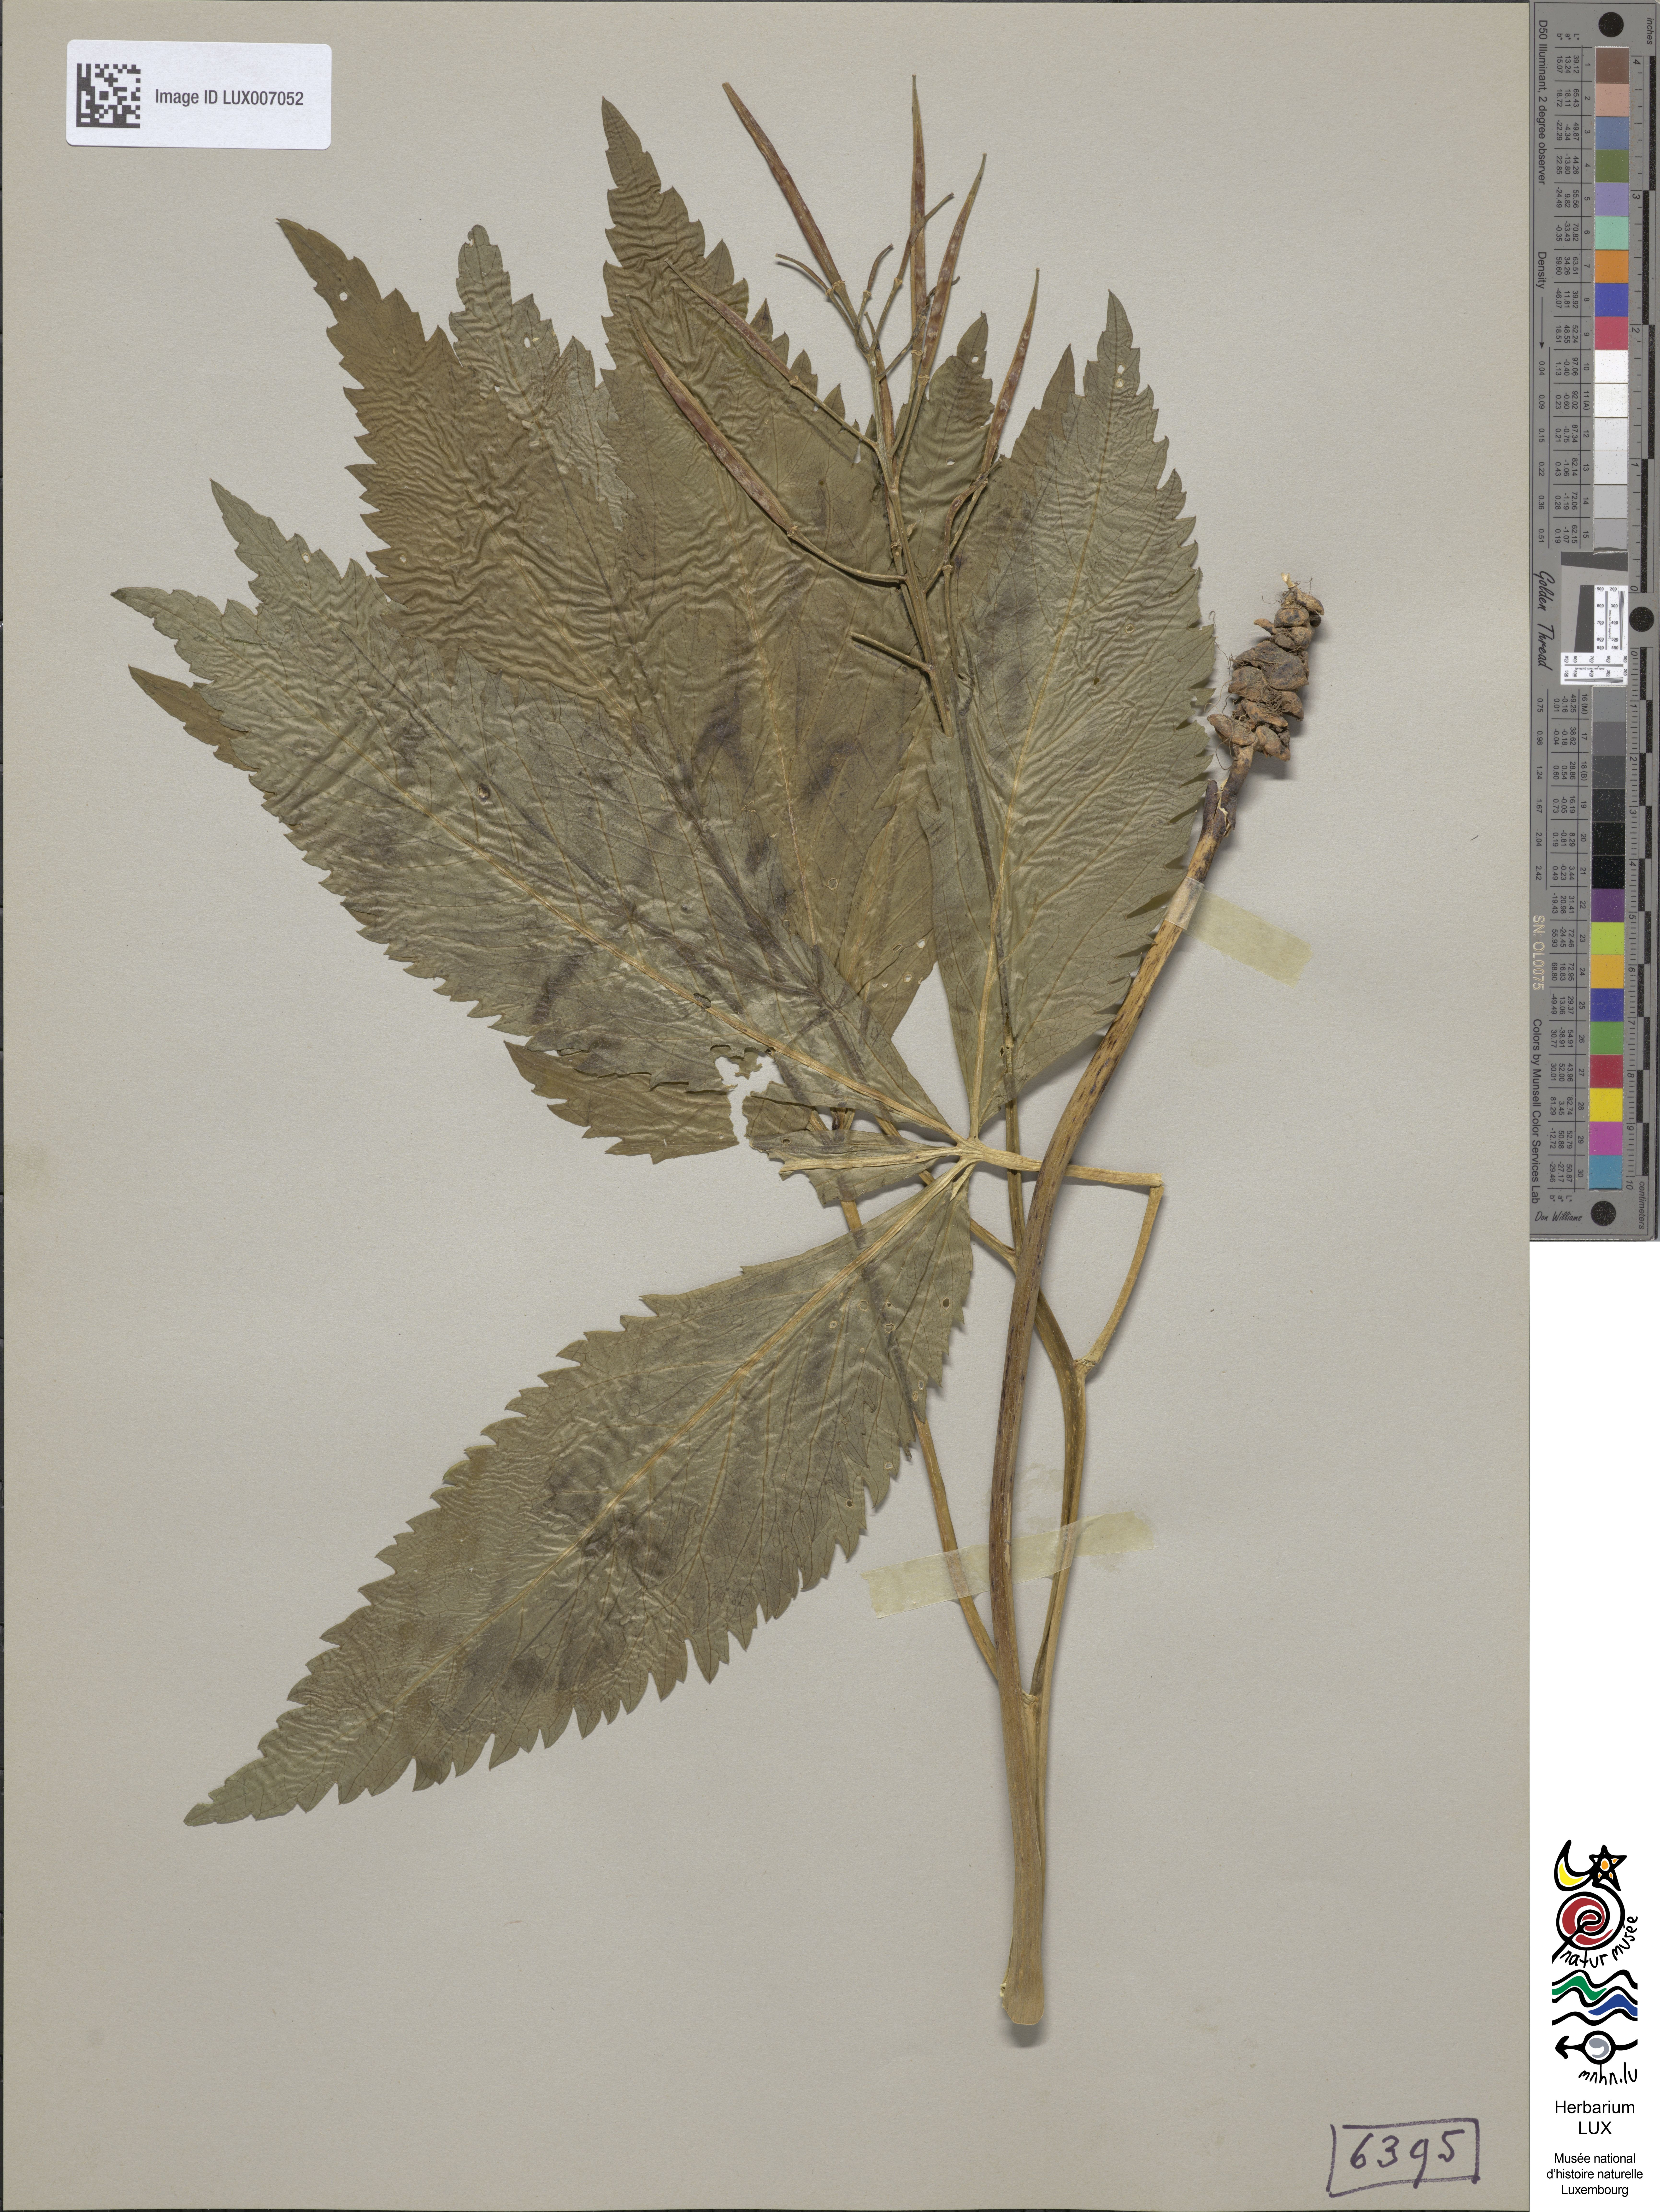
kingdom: Plantae
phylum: Tracheophyta
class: Magnoliopsida
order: Brassicales
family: Brassicaceae
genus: Cardamine
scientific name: Cardamine pentaphyllos
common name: Five-leaflet bitter-cress
